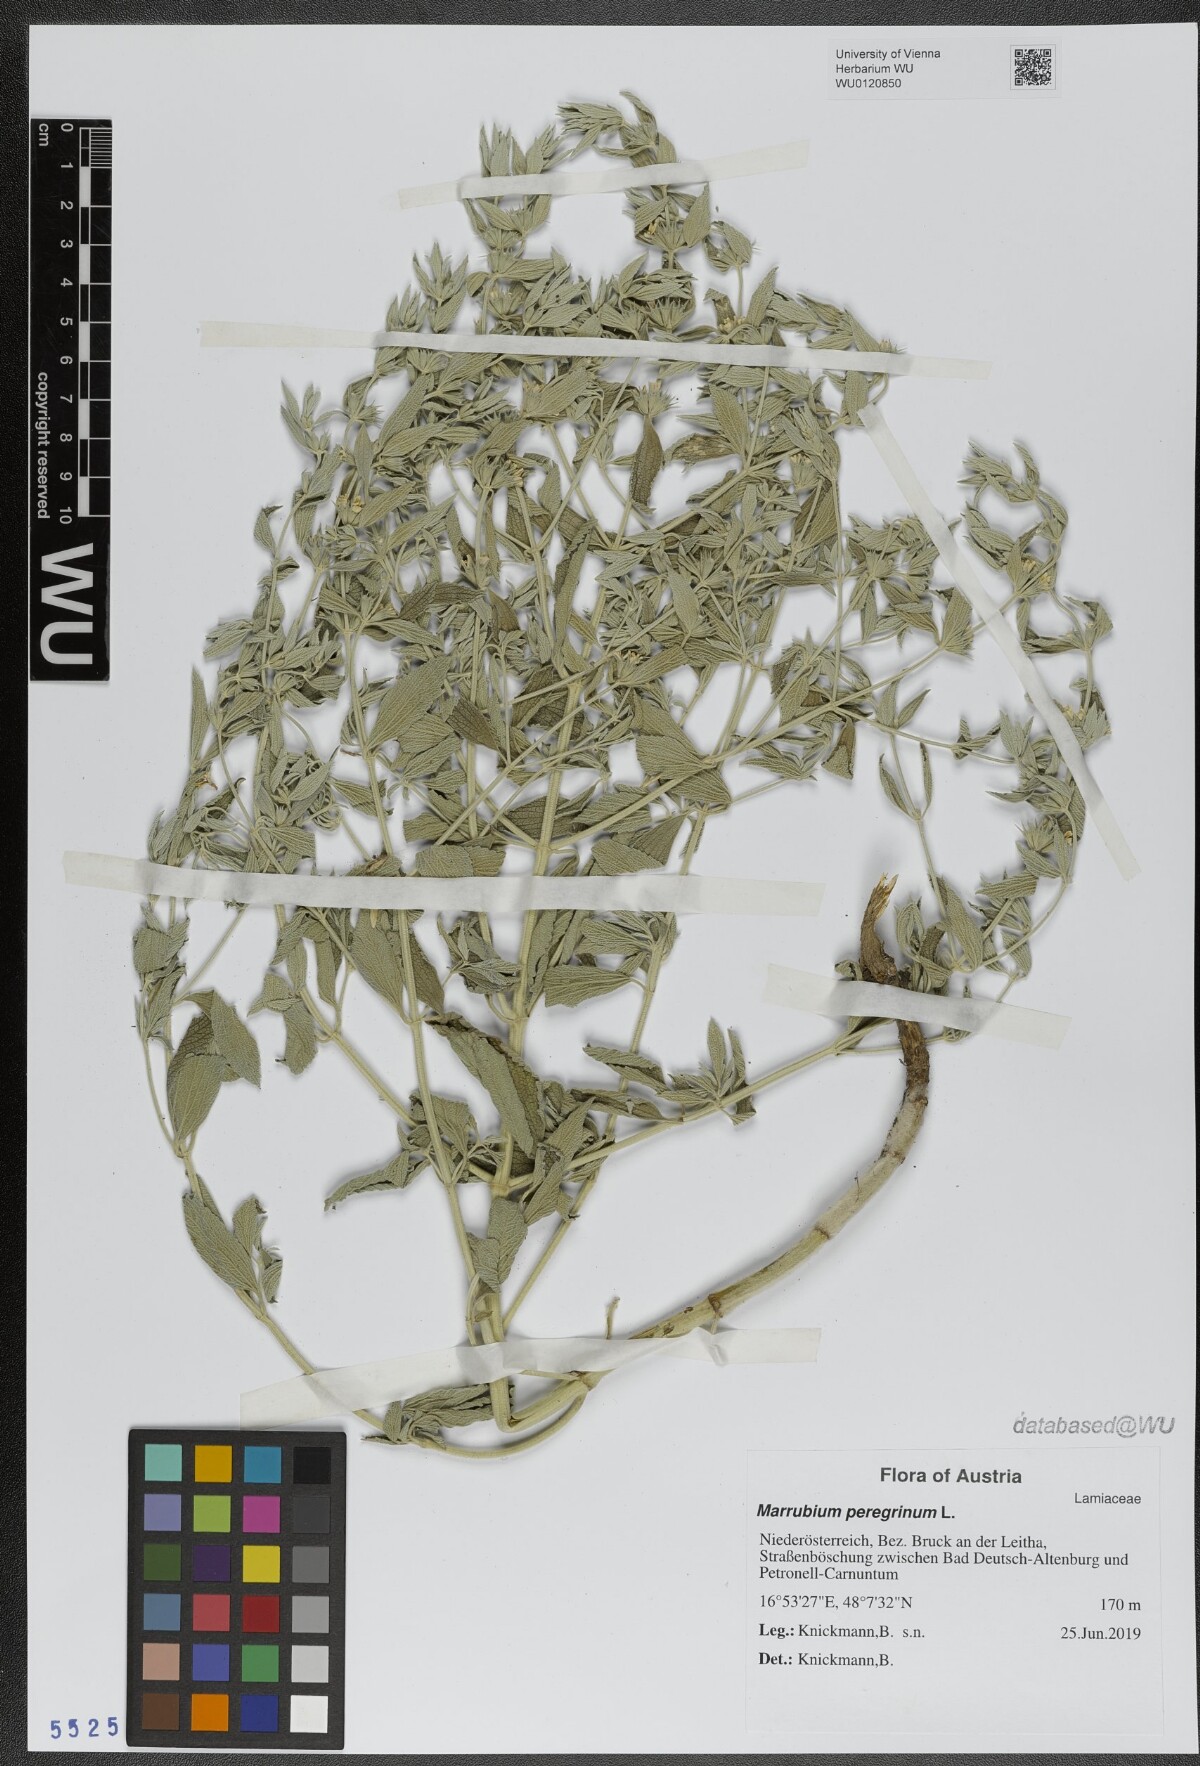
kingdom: Plantae
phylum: Tracheophyta
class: Magnoliopsida
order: Lamiales
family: Lamiaceae
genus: Marrubium
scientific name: Marrubium peregrinum
